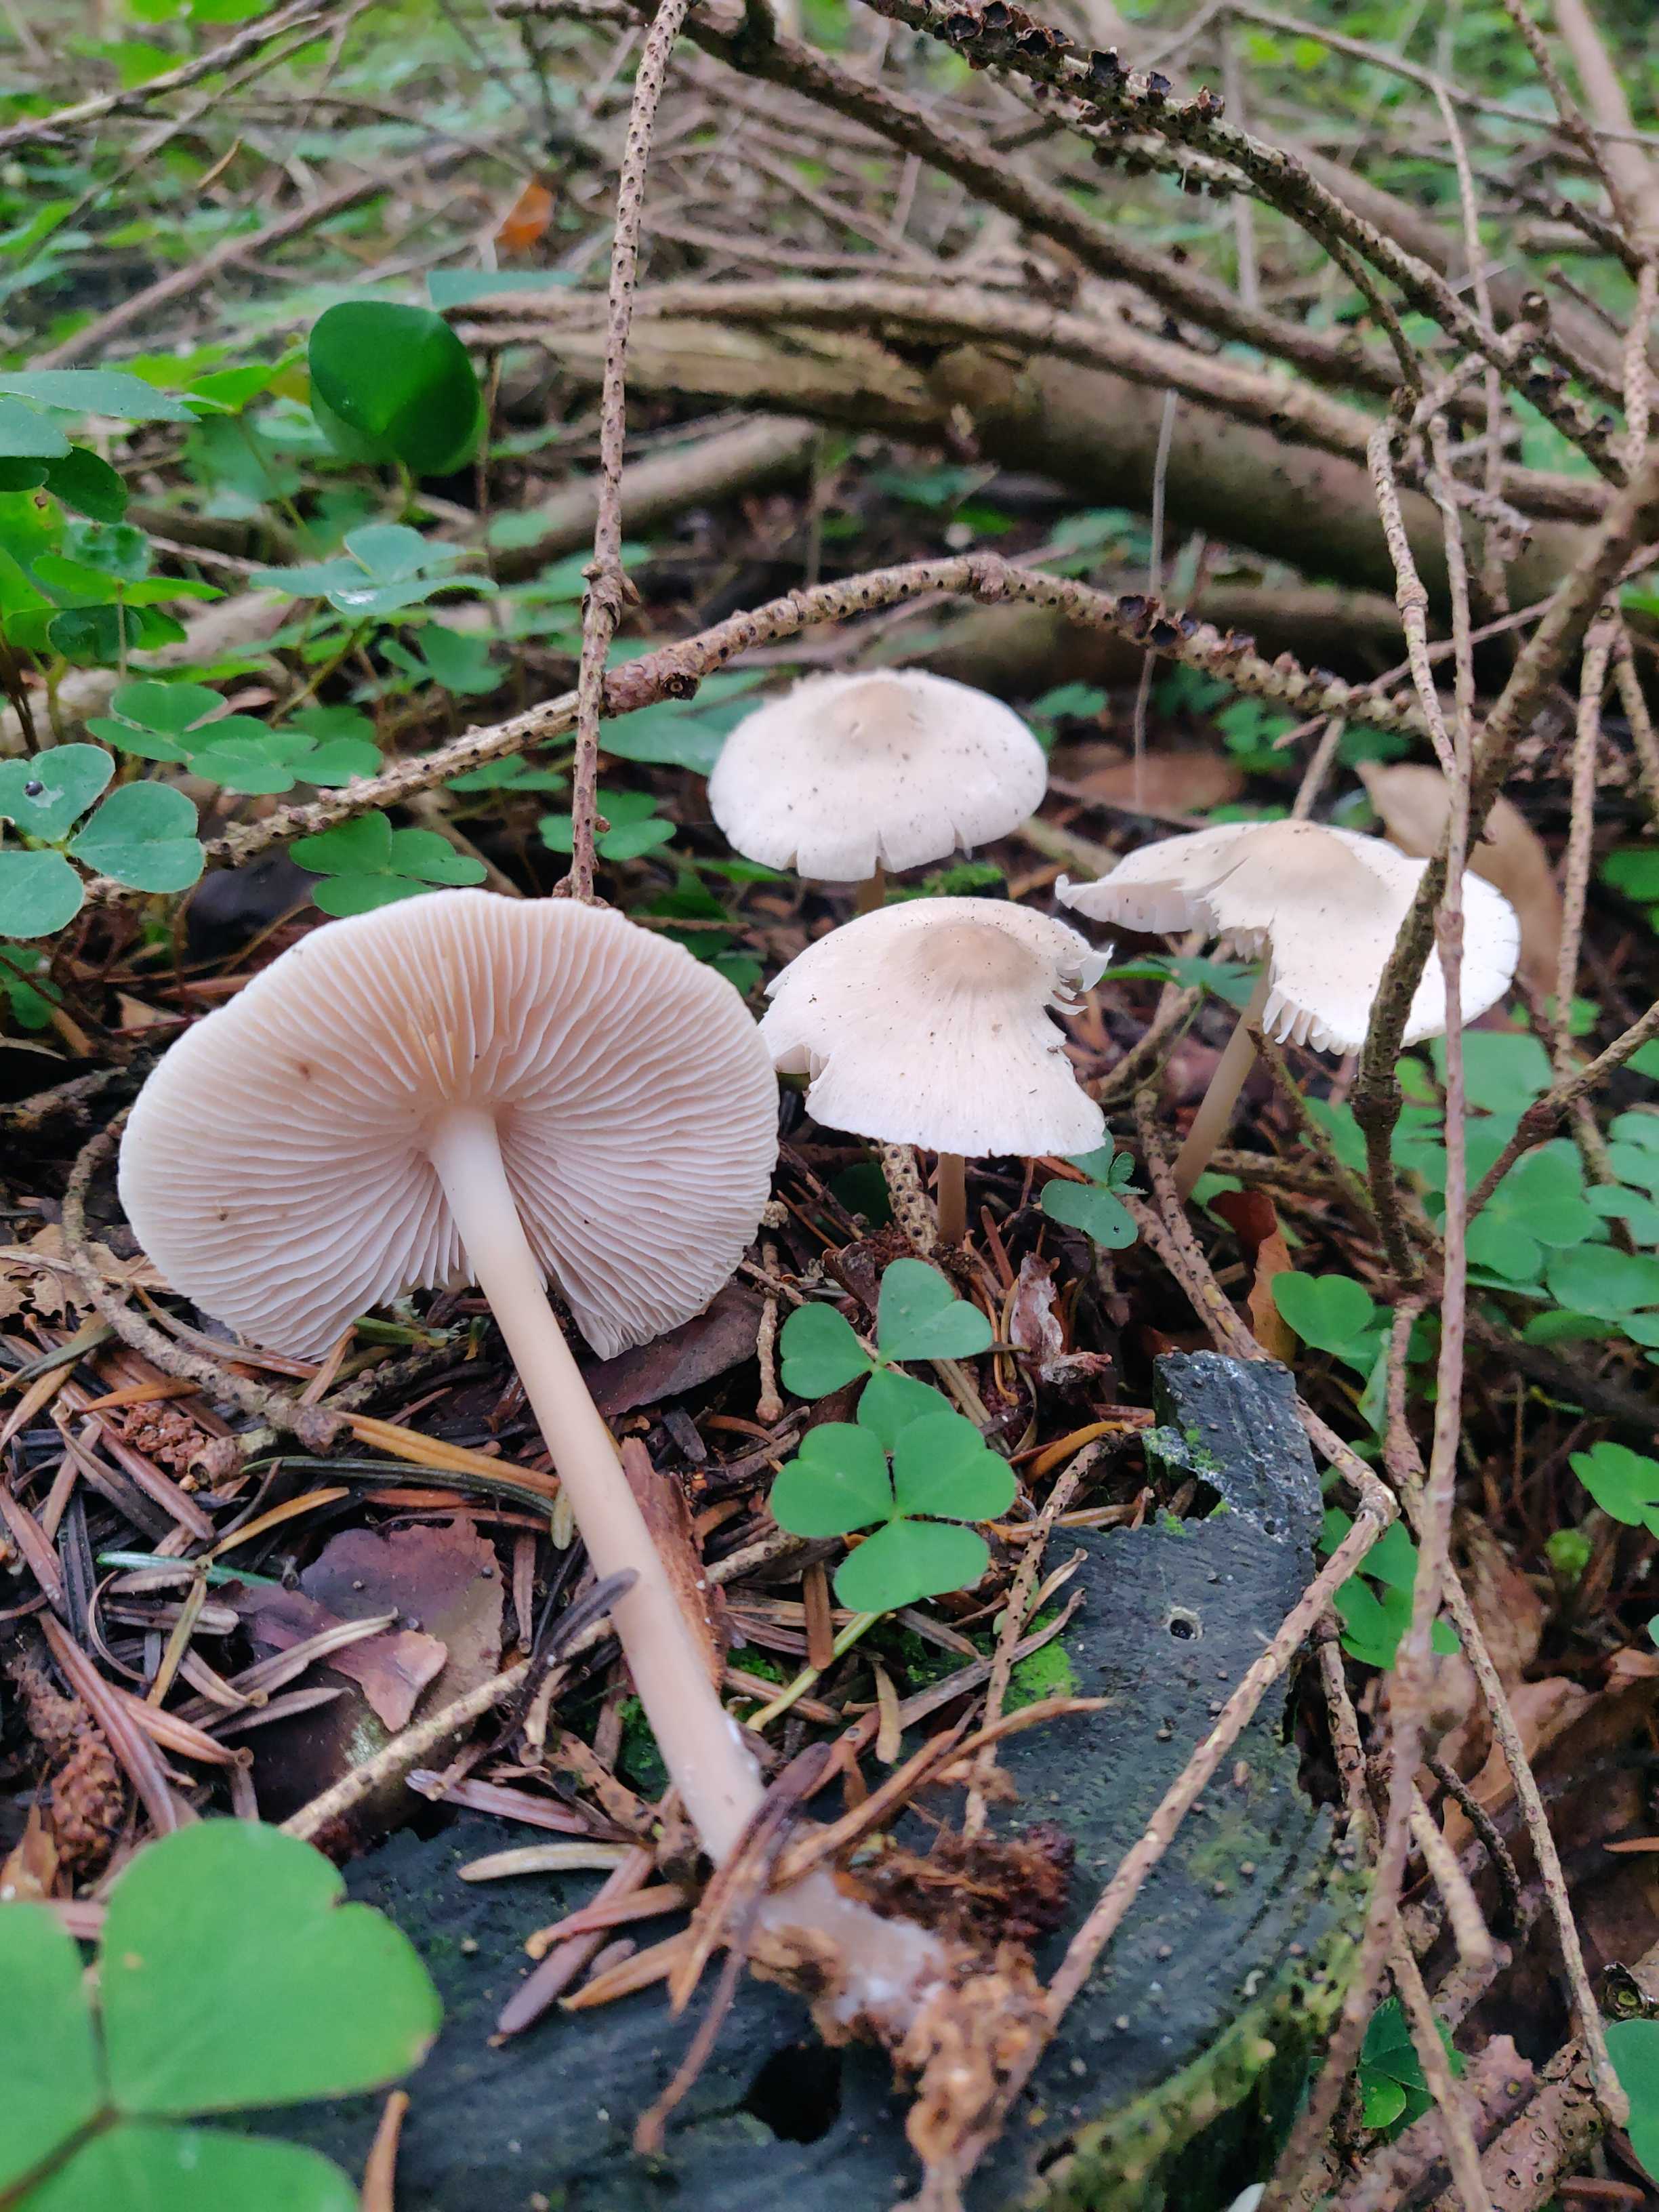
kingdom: Fungi
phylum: Basidiomycota
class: Agaricomycetes
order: Agaricales
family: Mycenaceae
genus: Mycena
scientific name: Mycena galericulata
